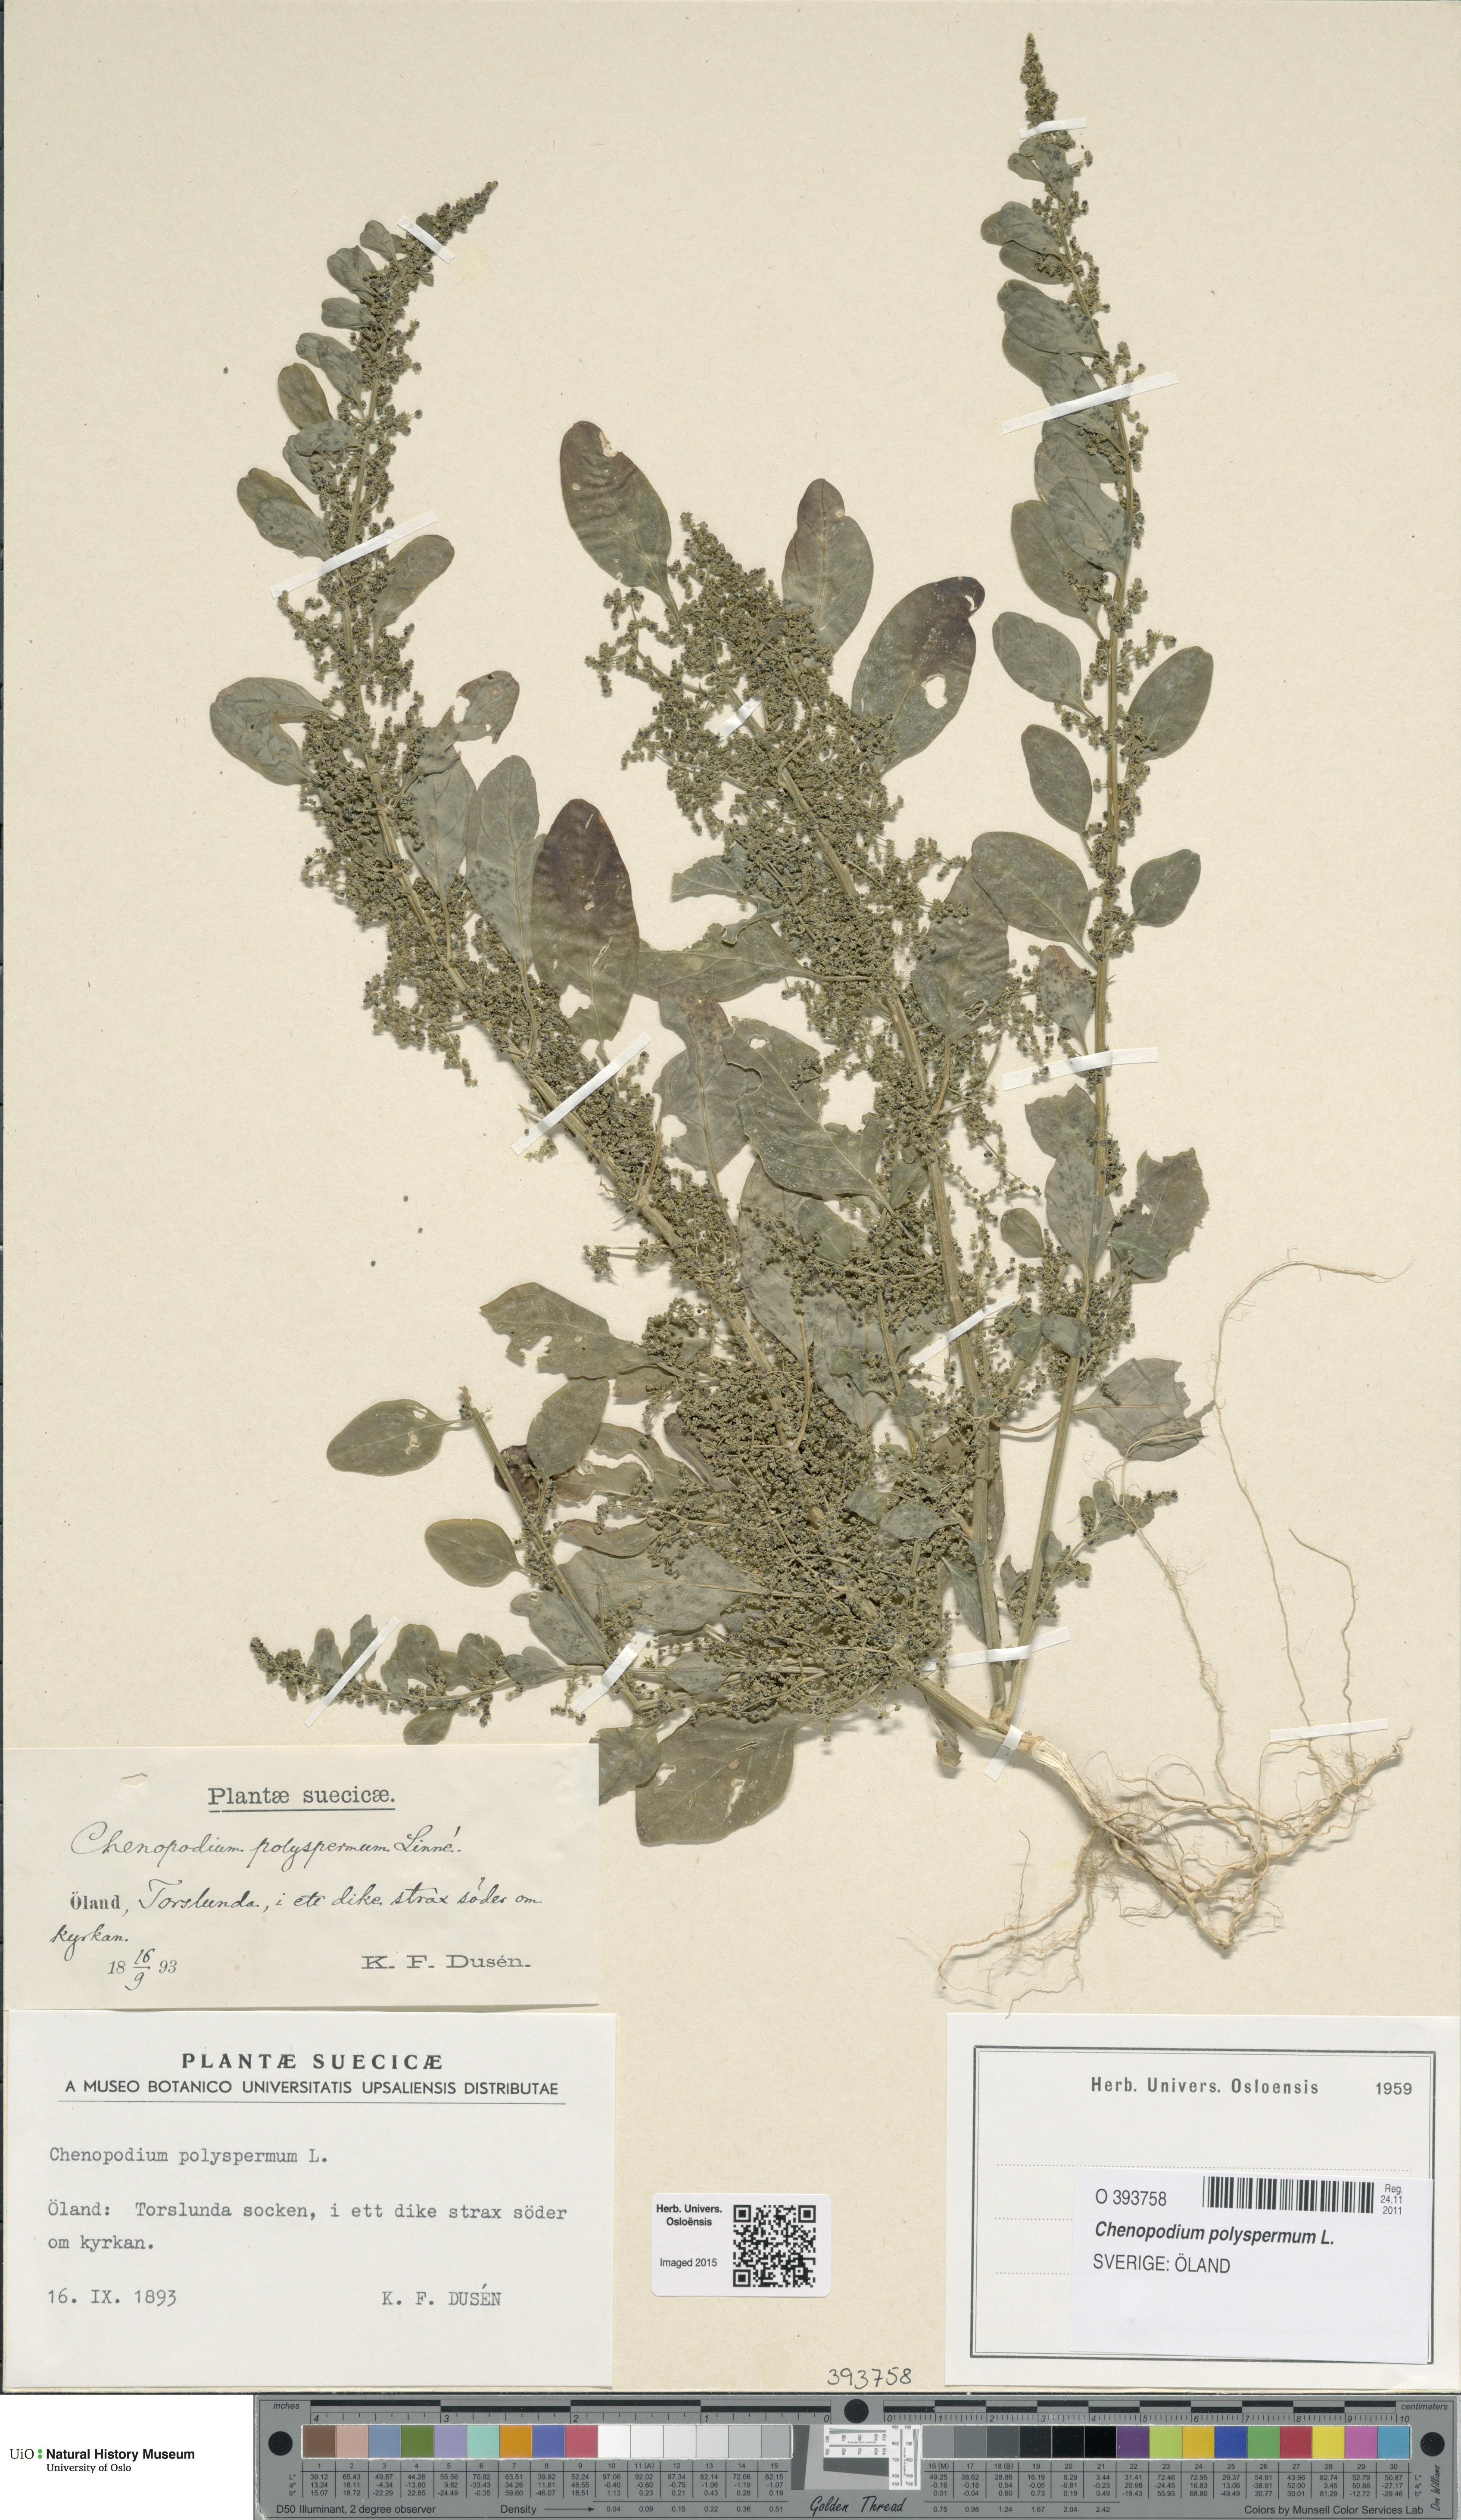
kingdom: Plantae
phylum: Tracheophyta
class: Magnoliopsida
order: Caryophyllales
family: Amaranthaceae
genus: Lipandra
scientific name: Lipandra polysperma
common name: Many-seed goosefoot
